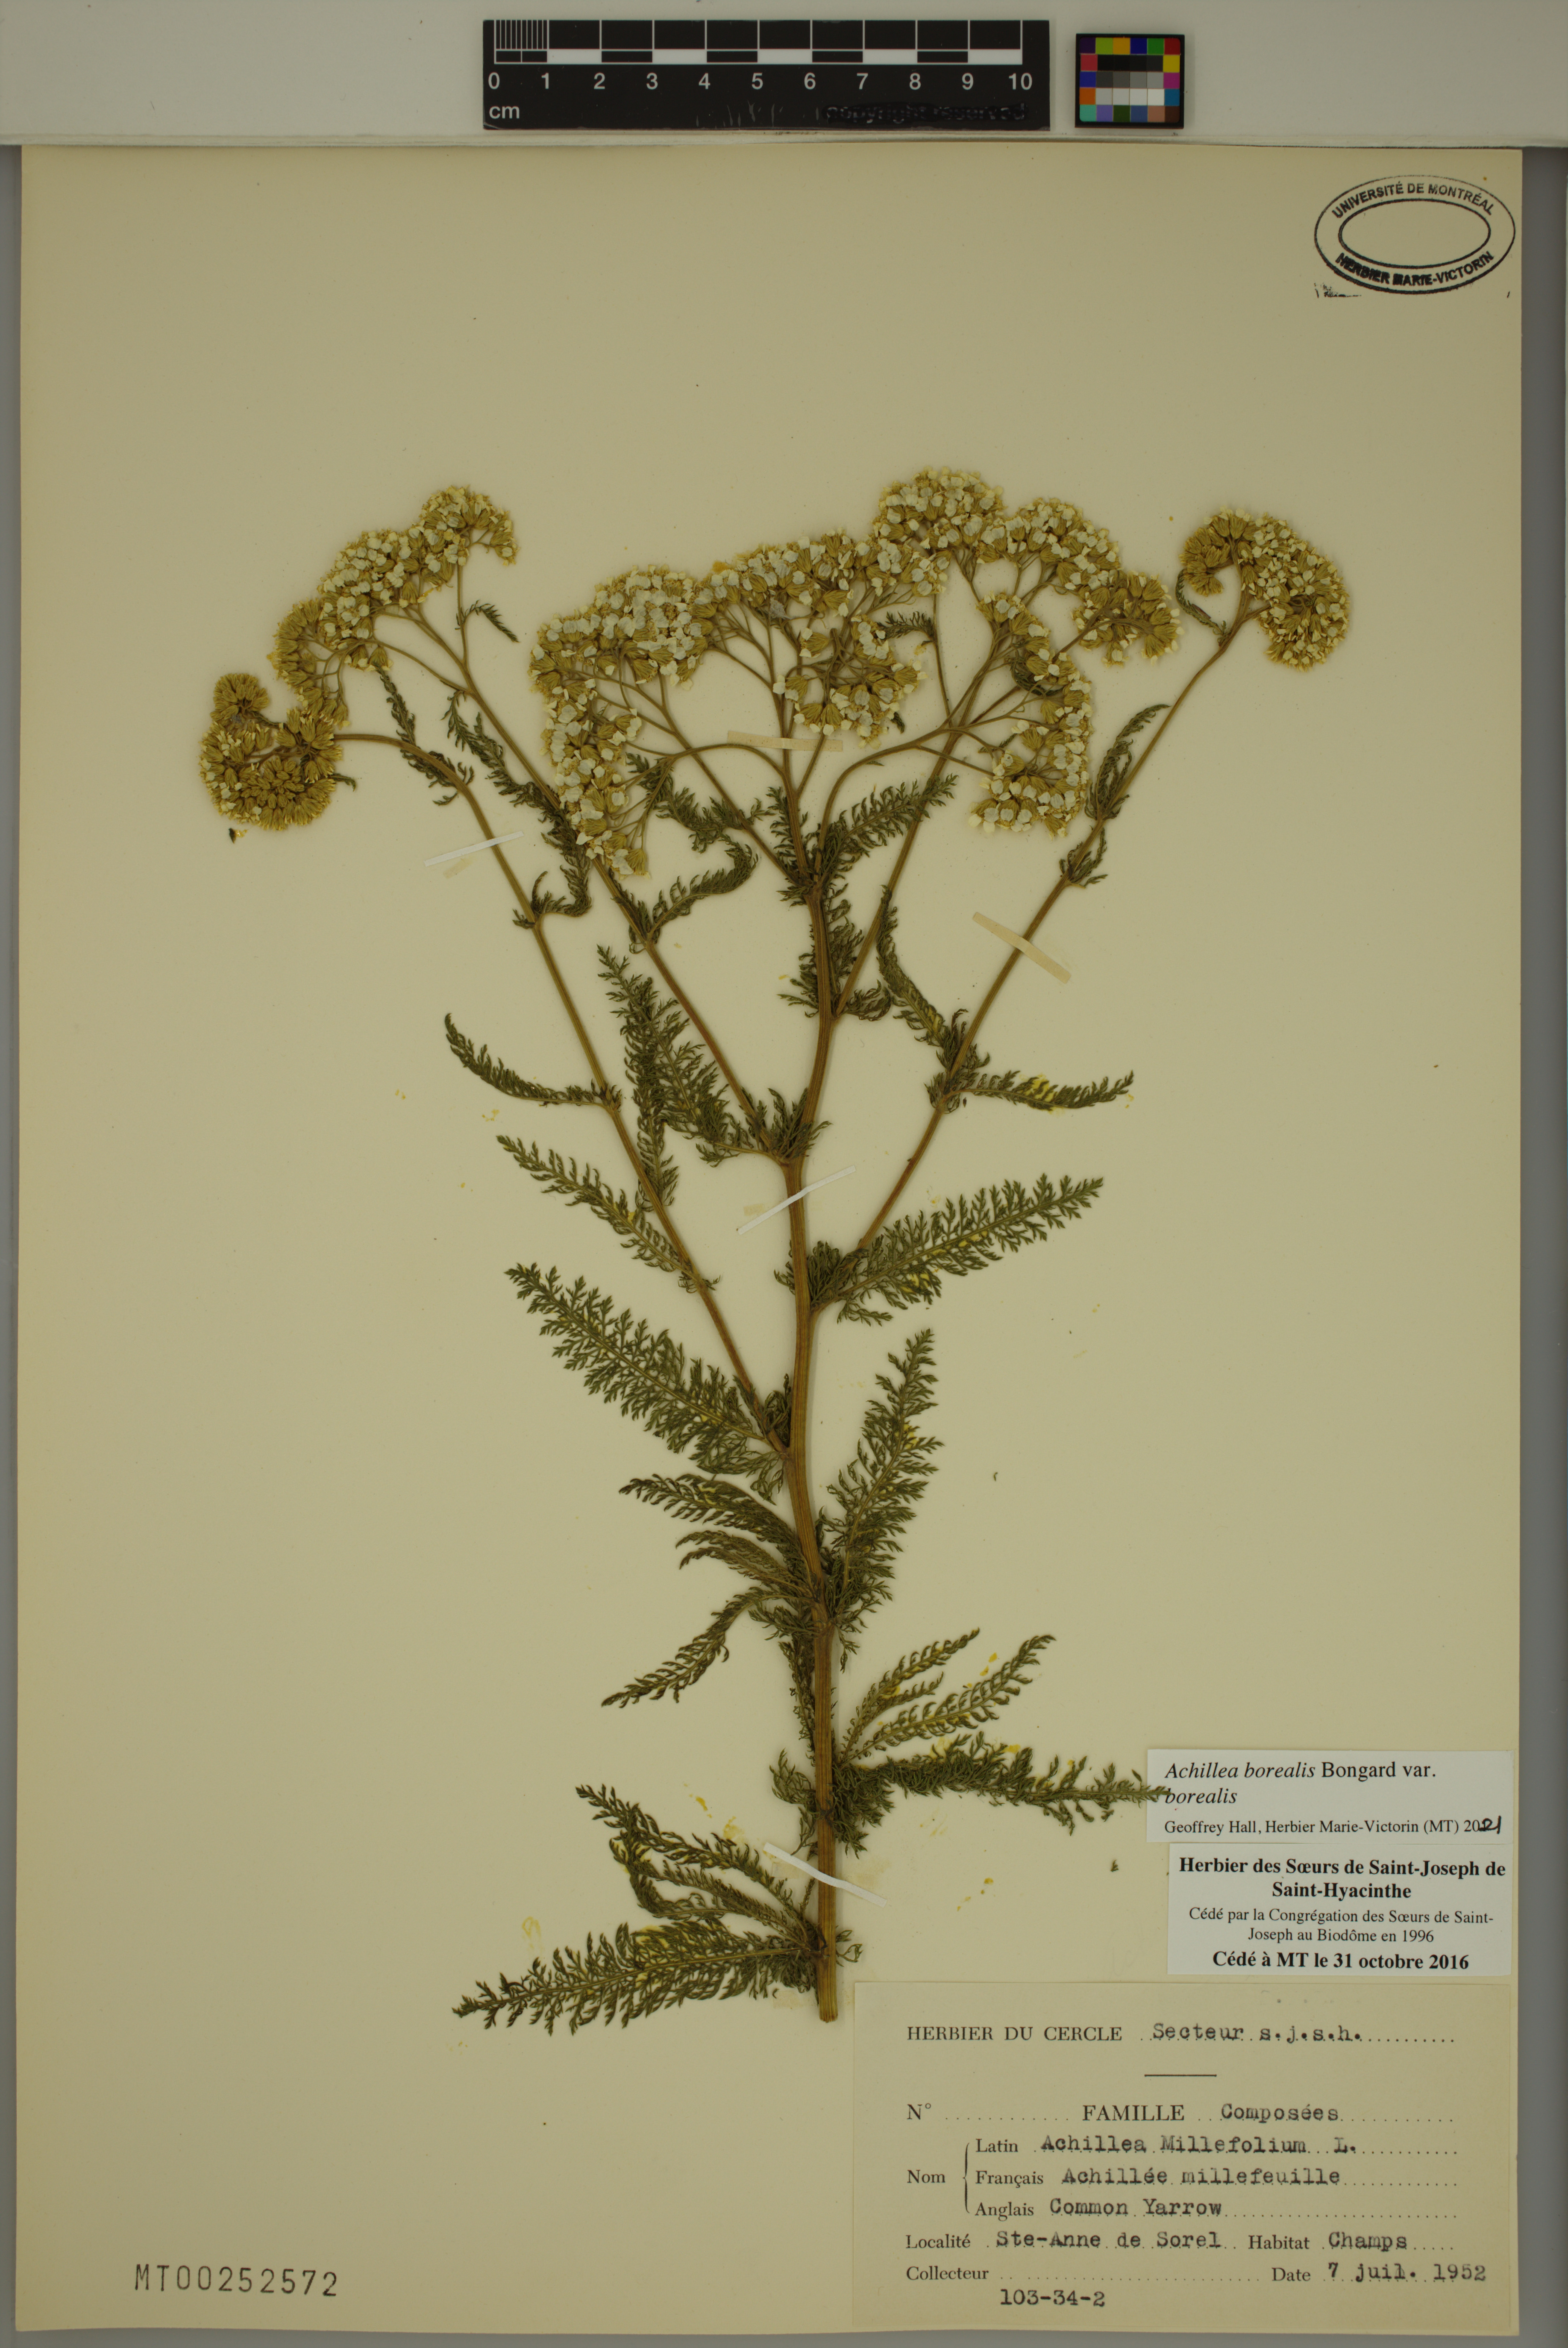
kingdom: Plantae
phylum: Tracheophyta
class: Magnoliopsida
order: Asterales
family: Asteraceae
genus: Achillea
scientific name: Achillea millefolium
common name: Yarrow
